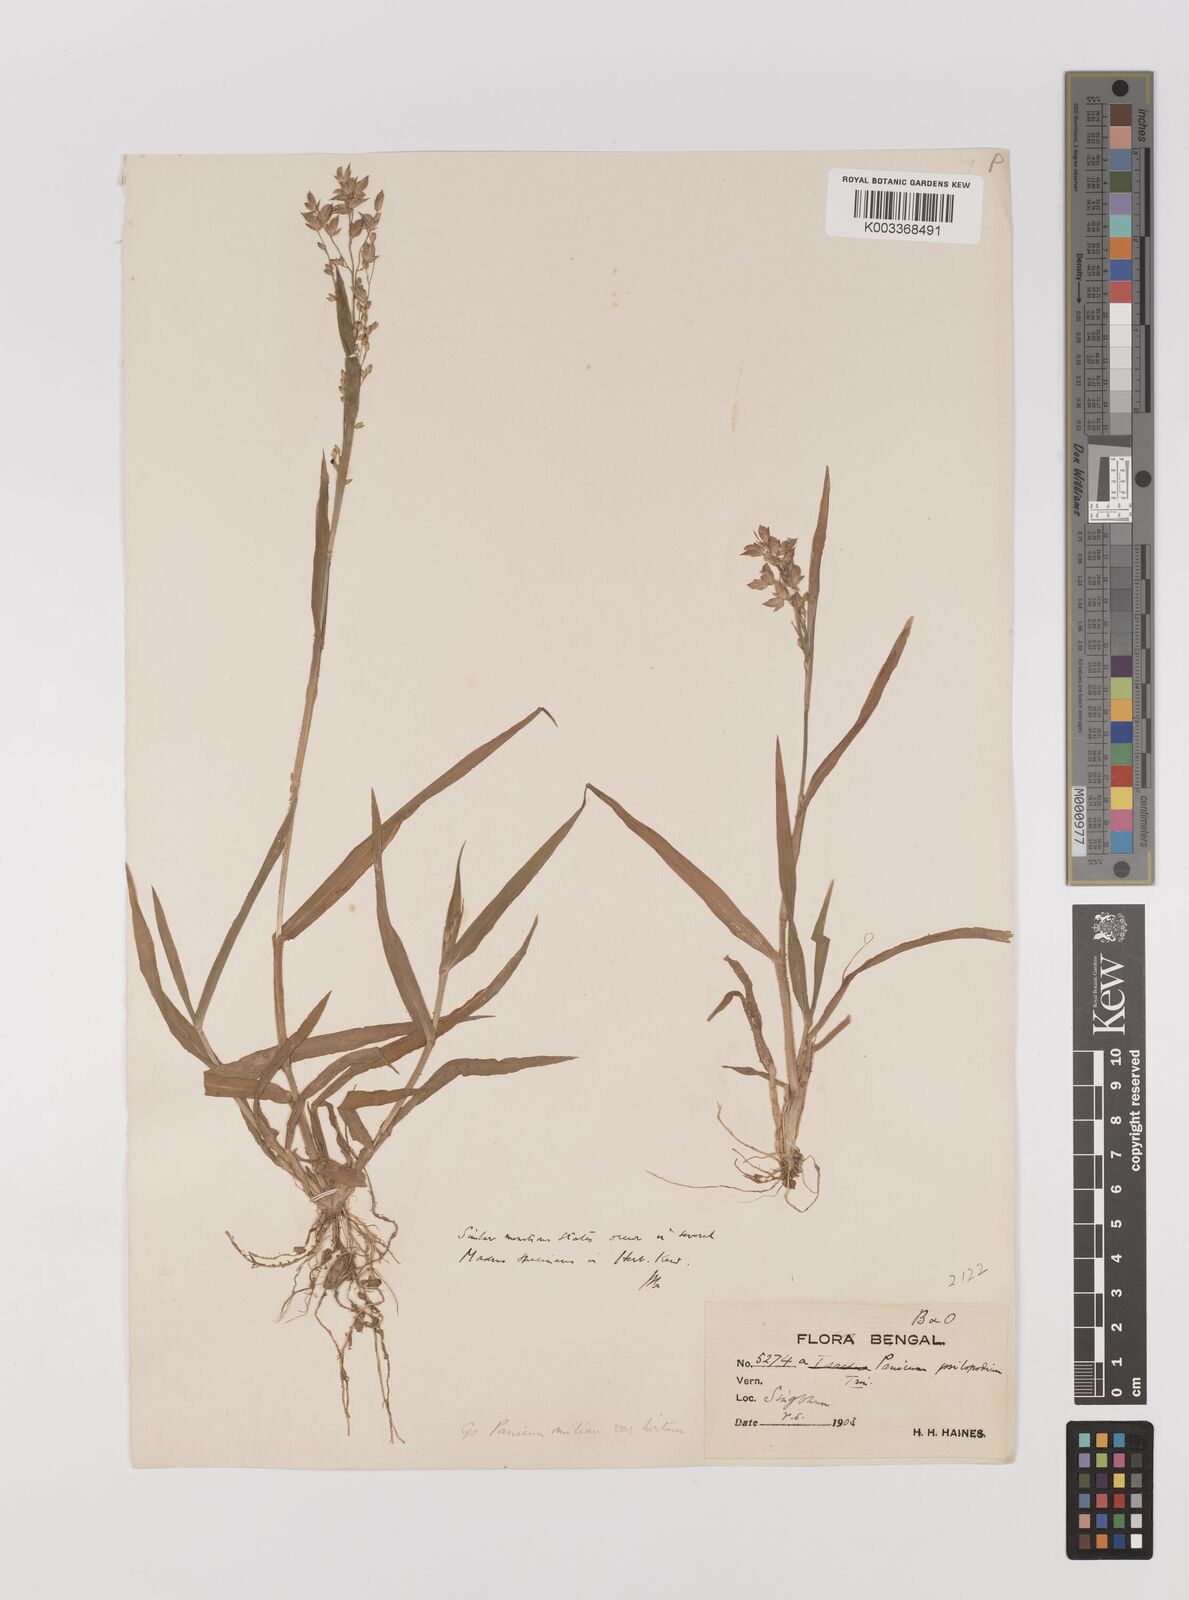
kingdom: Plantae
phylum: Tracheophyta
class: Liliopsida
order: Poales
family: Poaceae
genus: Panicum
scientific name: Panicum sumatrense
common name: Little millet
